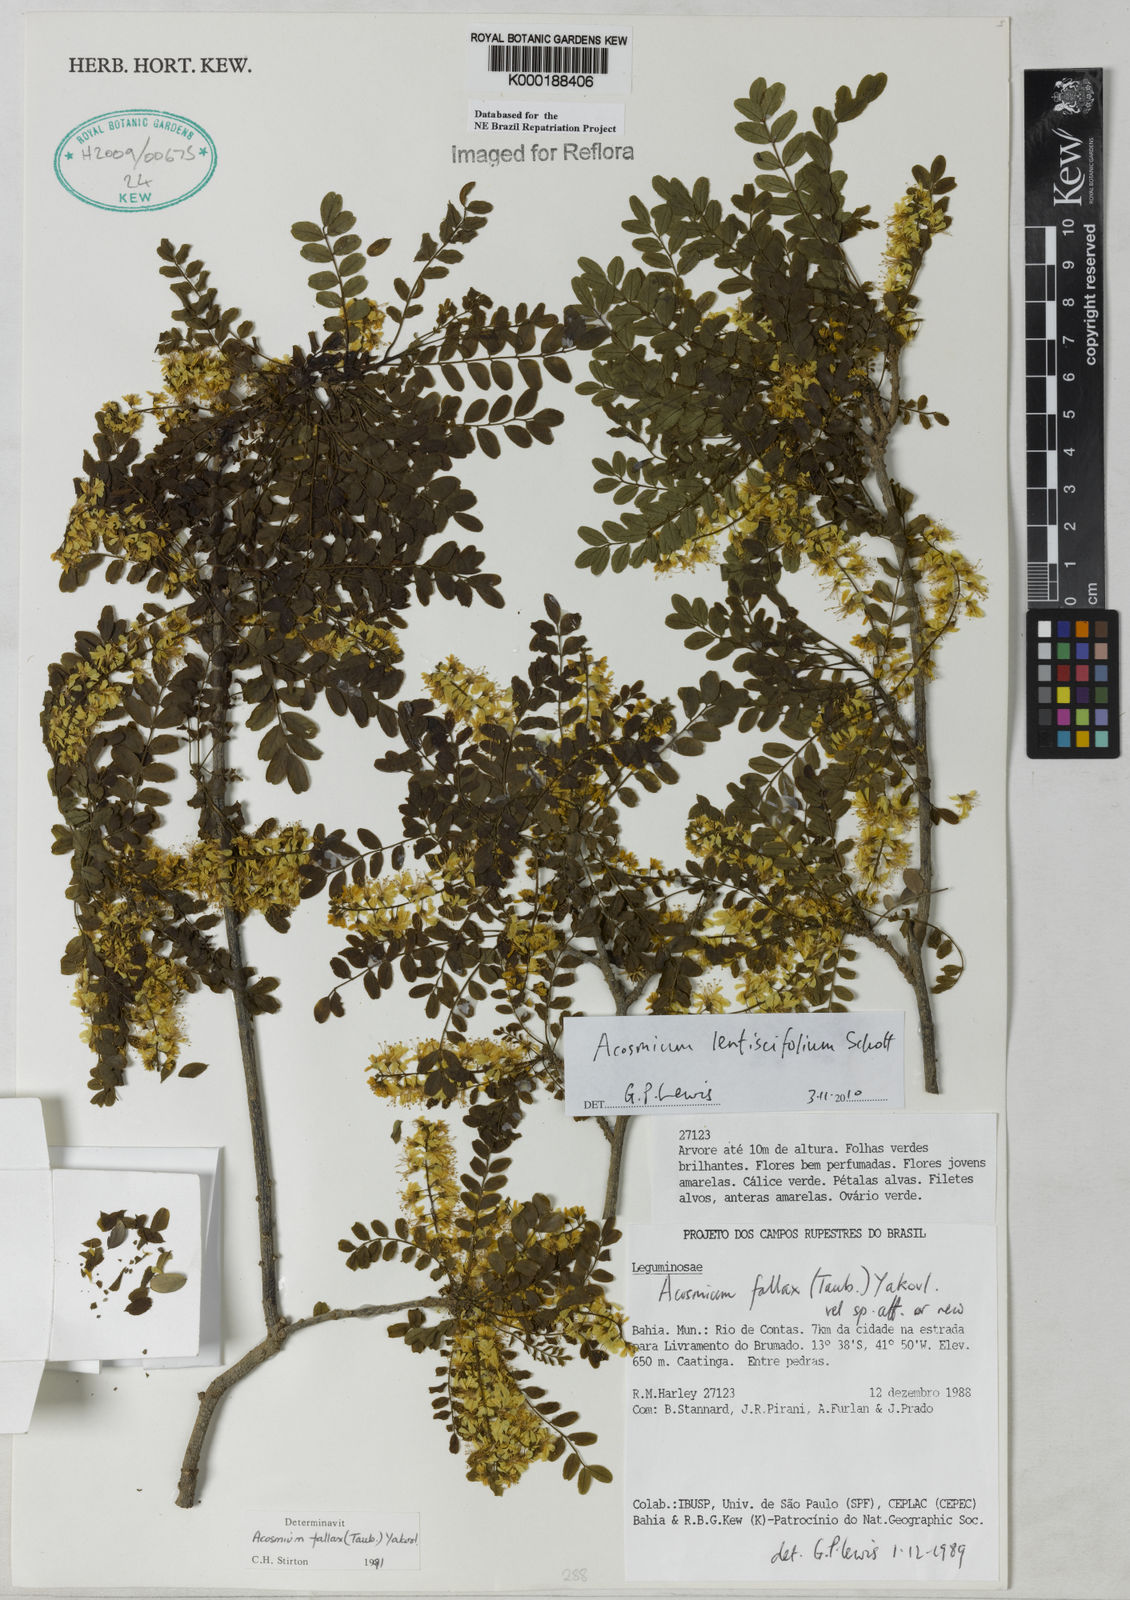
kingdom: Plantae
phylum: Tracheophyta
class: Magnoliopsida
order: Fabales
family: Fabaceae
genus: Acosmium
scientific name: Acosmium lentiscifolium
